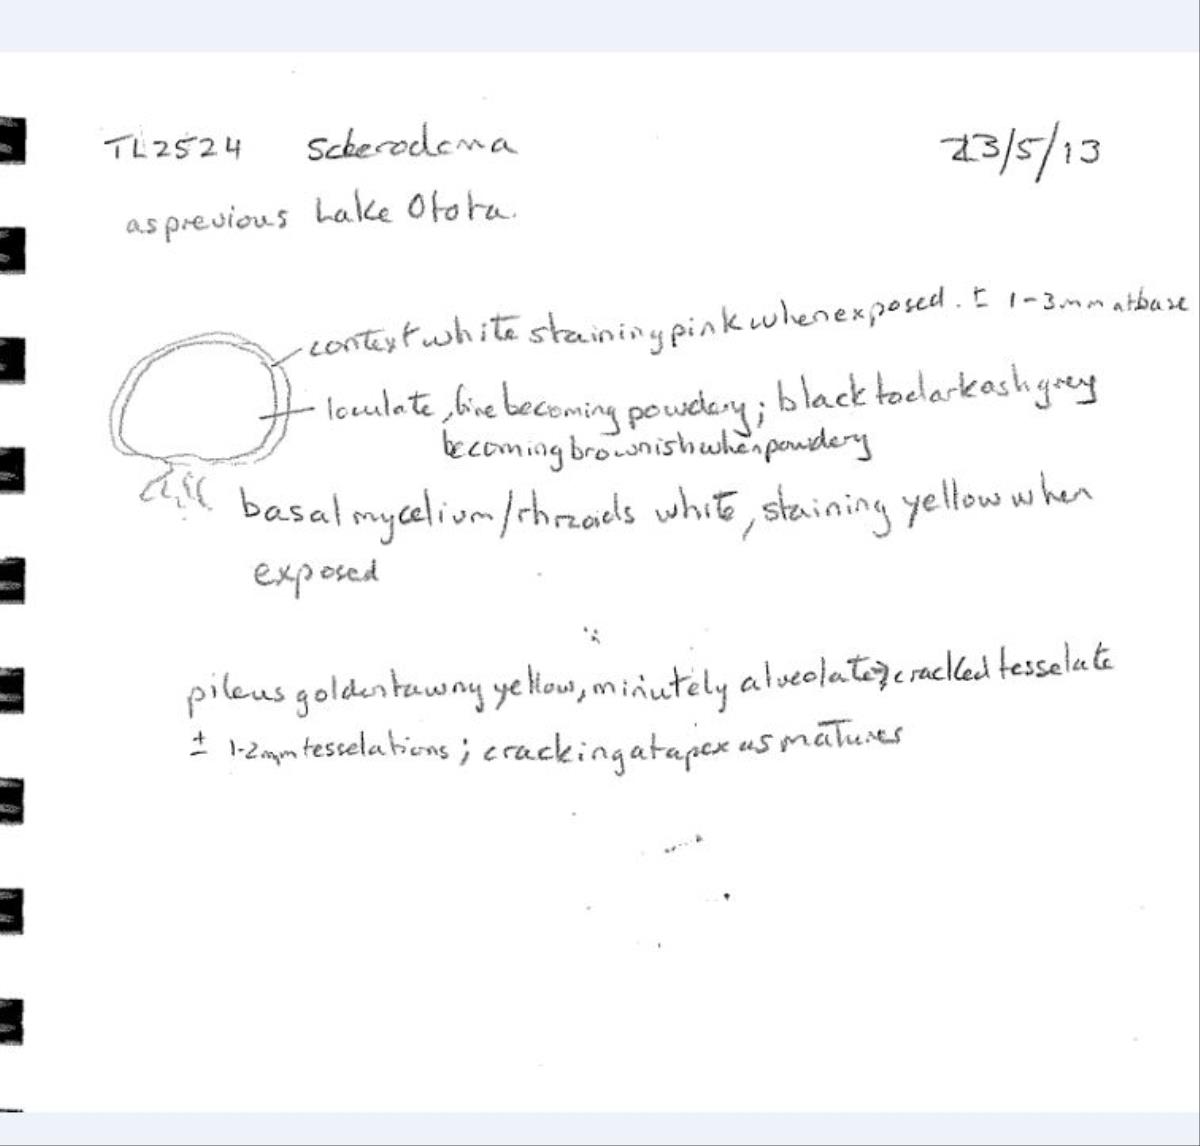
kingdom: Fungi
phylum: Basidiomycota
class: Agaricomycetes
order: Boletales
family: Sclerodermataceae
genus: Scleroderma
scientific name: Scleroderma radicans
